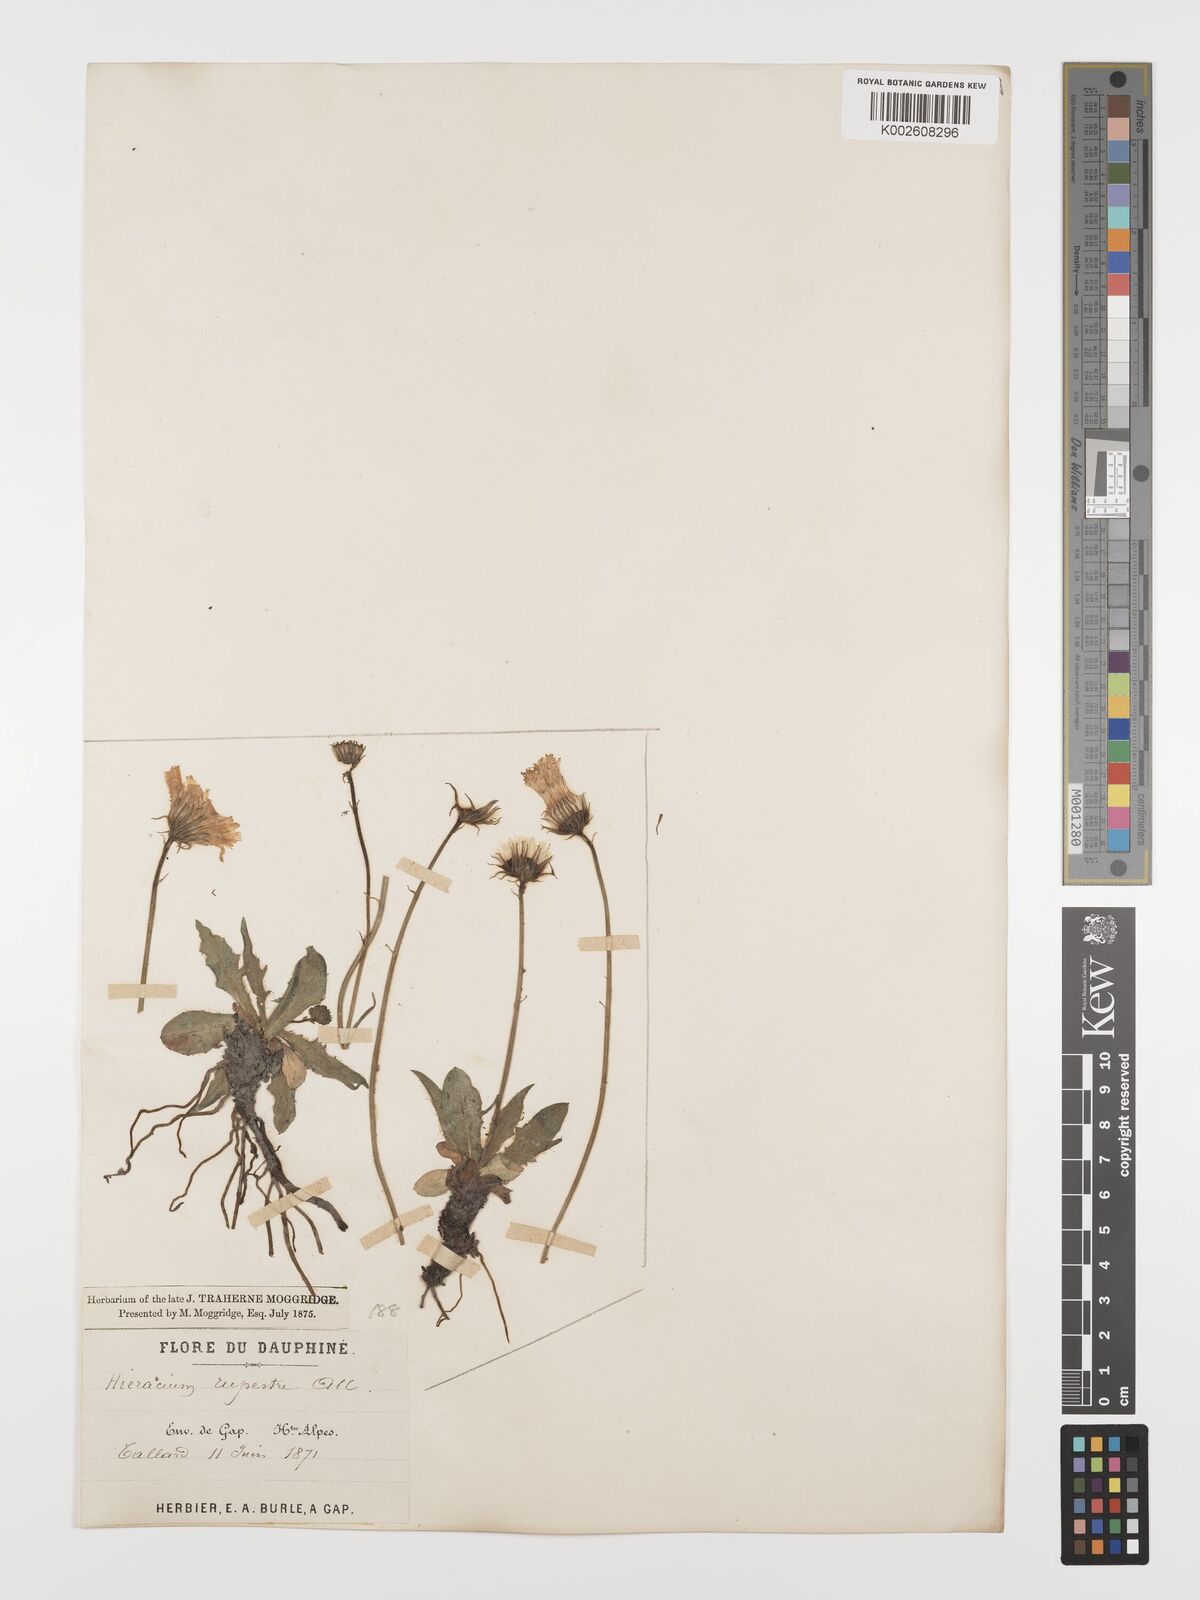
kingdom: Plantae
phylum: Tracheophyta
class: Magnoliopsida
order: Asterales
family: Asteraceae
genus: Hieracium
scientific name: Hieracium rupestre
